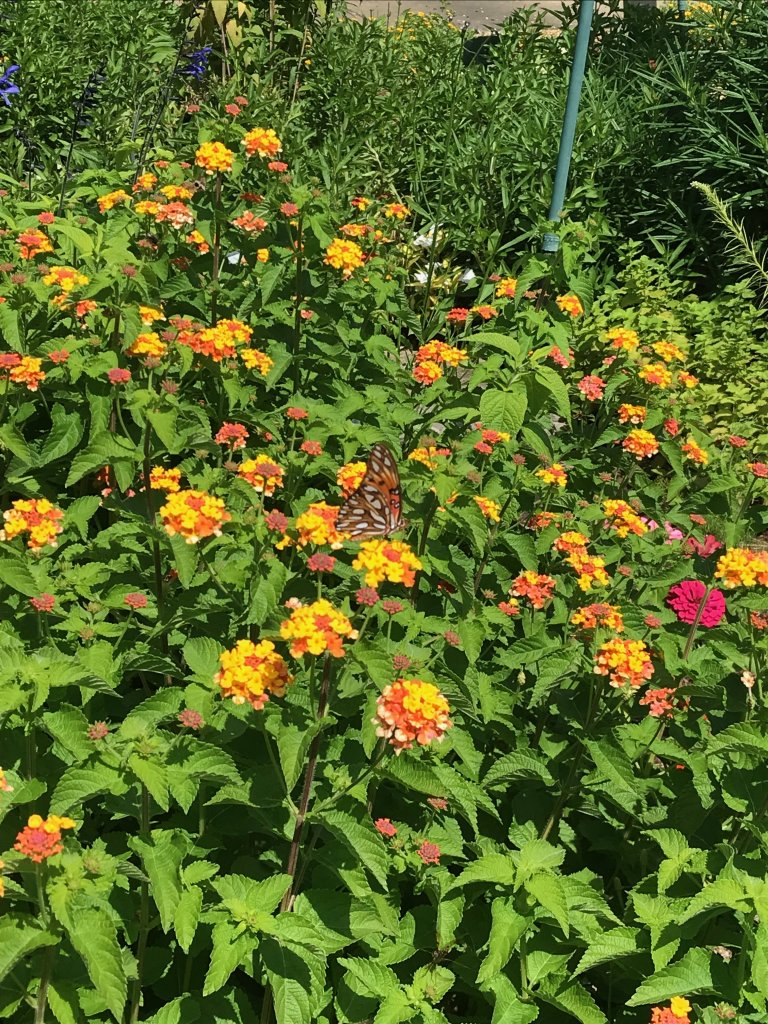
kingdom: Animalia
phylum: Arthropoda
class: Insecta
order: Lepidoptera
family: Nymphalidae
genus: Dione
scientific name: Dione vanillae
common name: Gulf Fritillary
